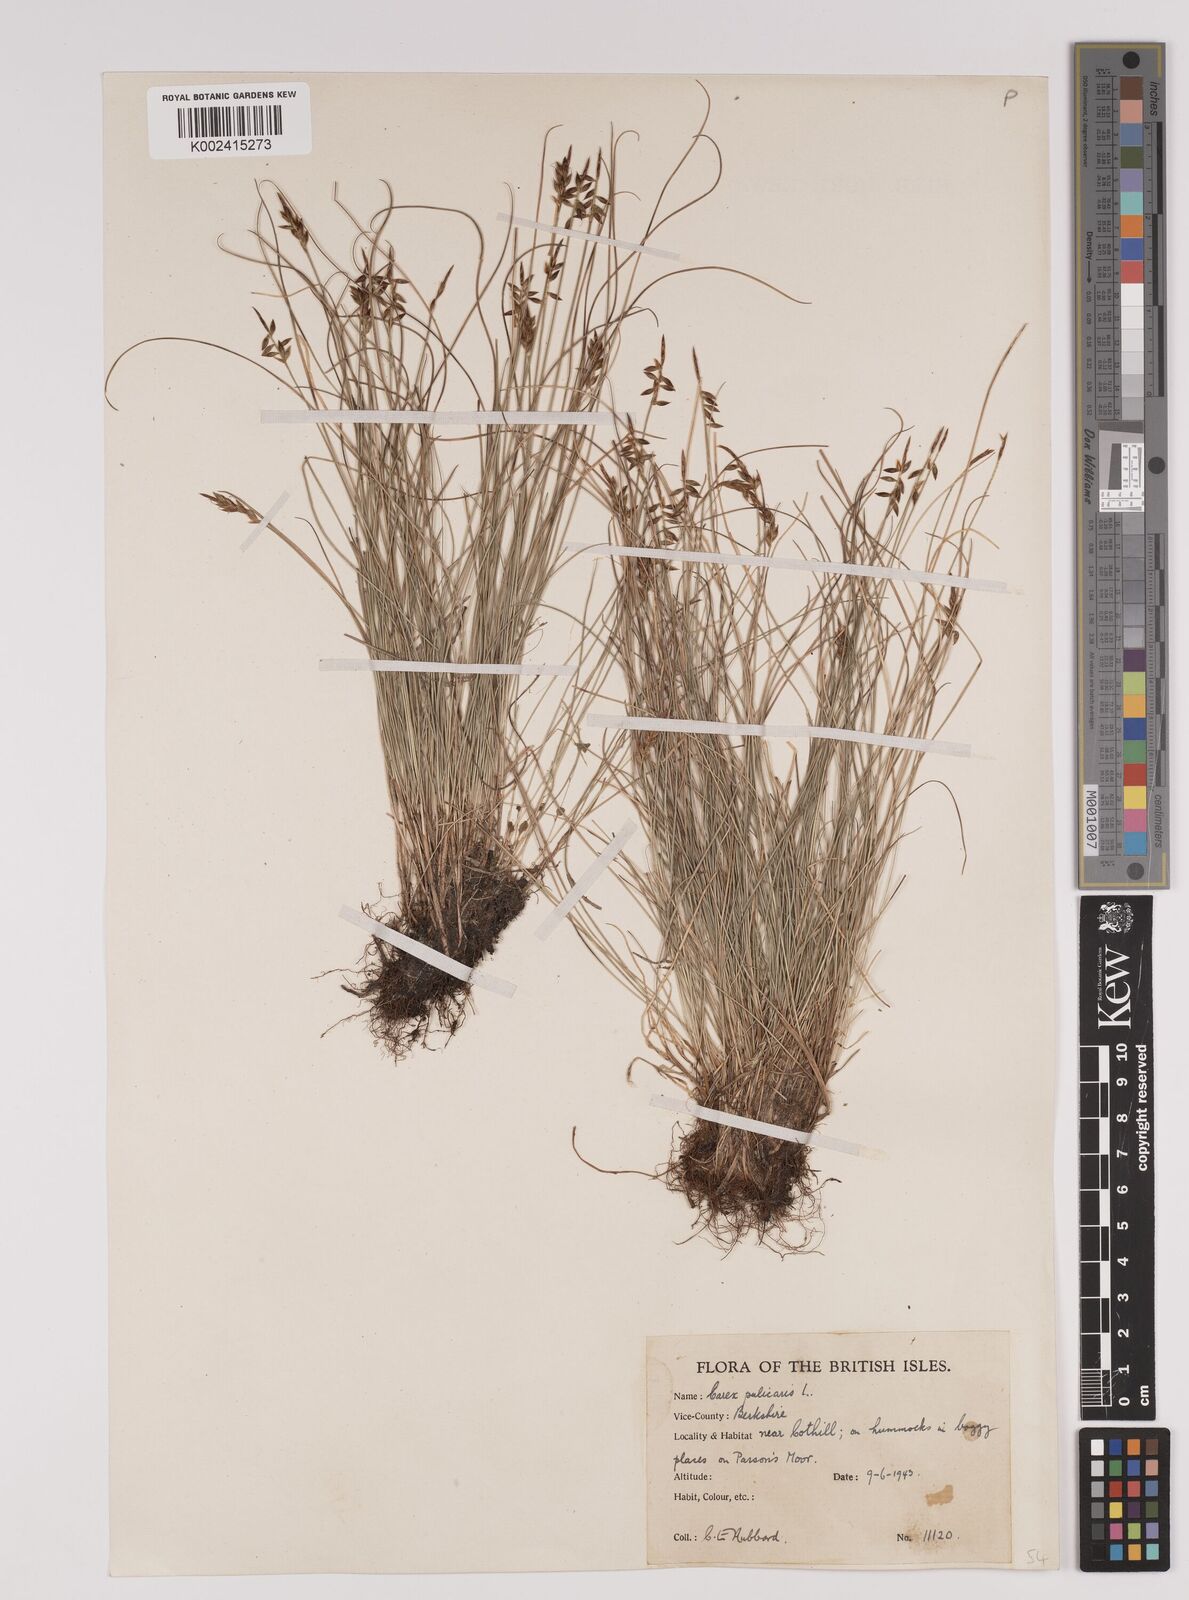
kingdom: Plantae
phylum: Tracheophyta
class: Liliopsida
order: Poales
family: Cyperaceae
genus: Carex
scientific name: Carex pulicaris
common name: Flea sedge
